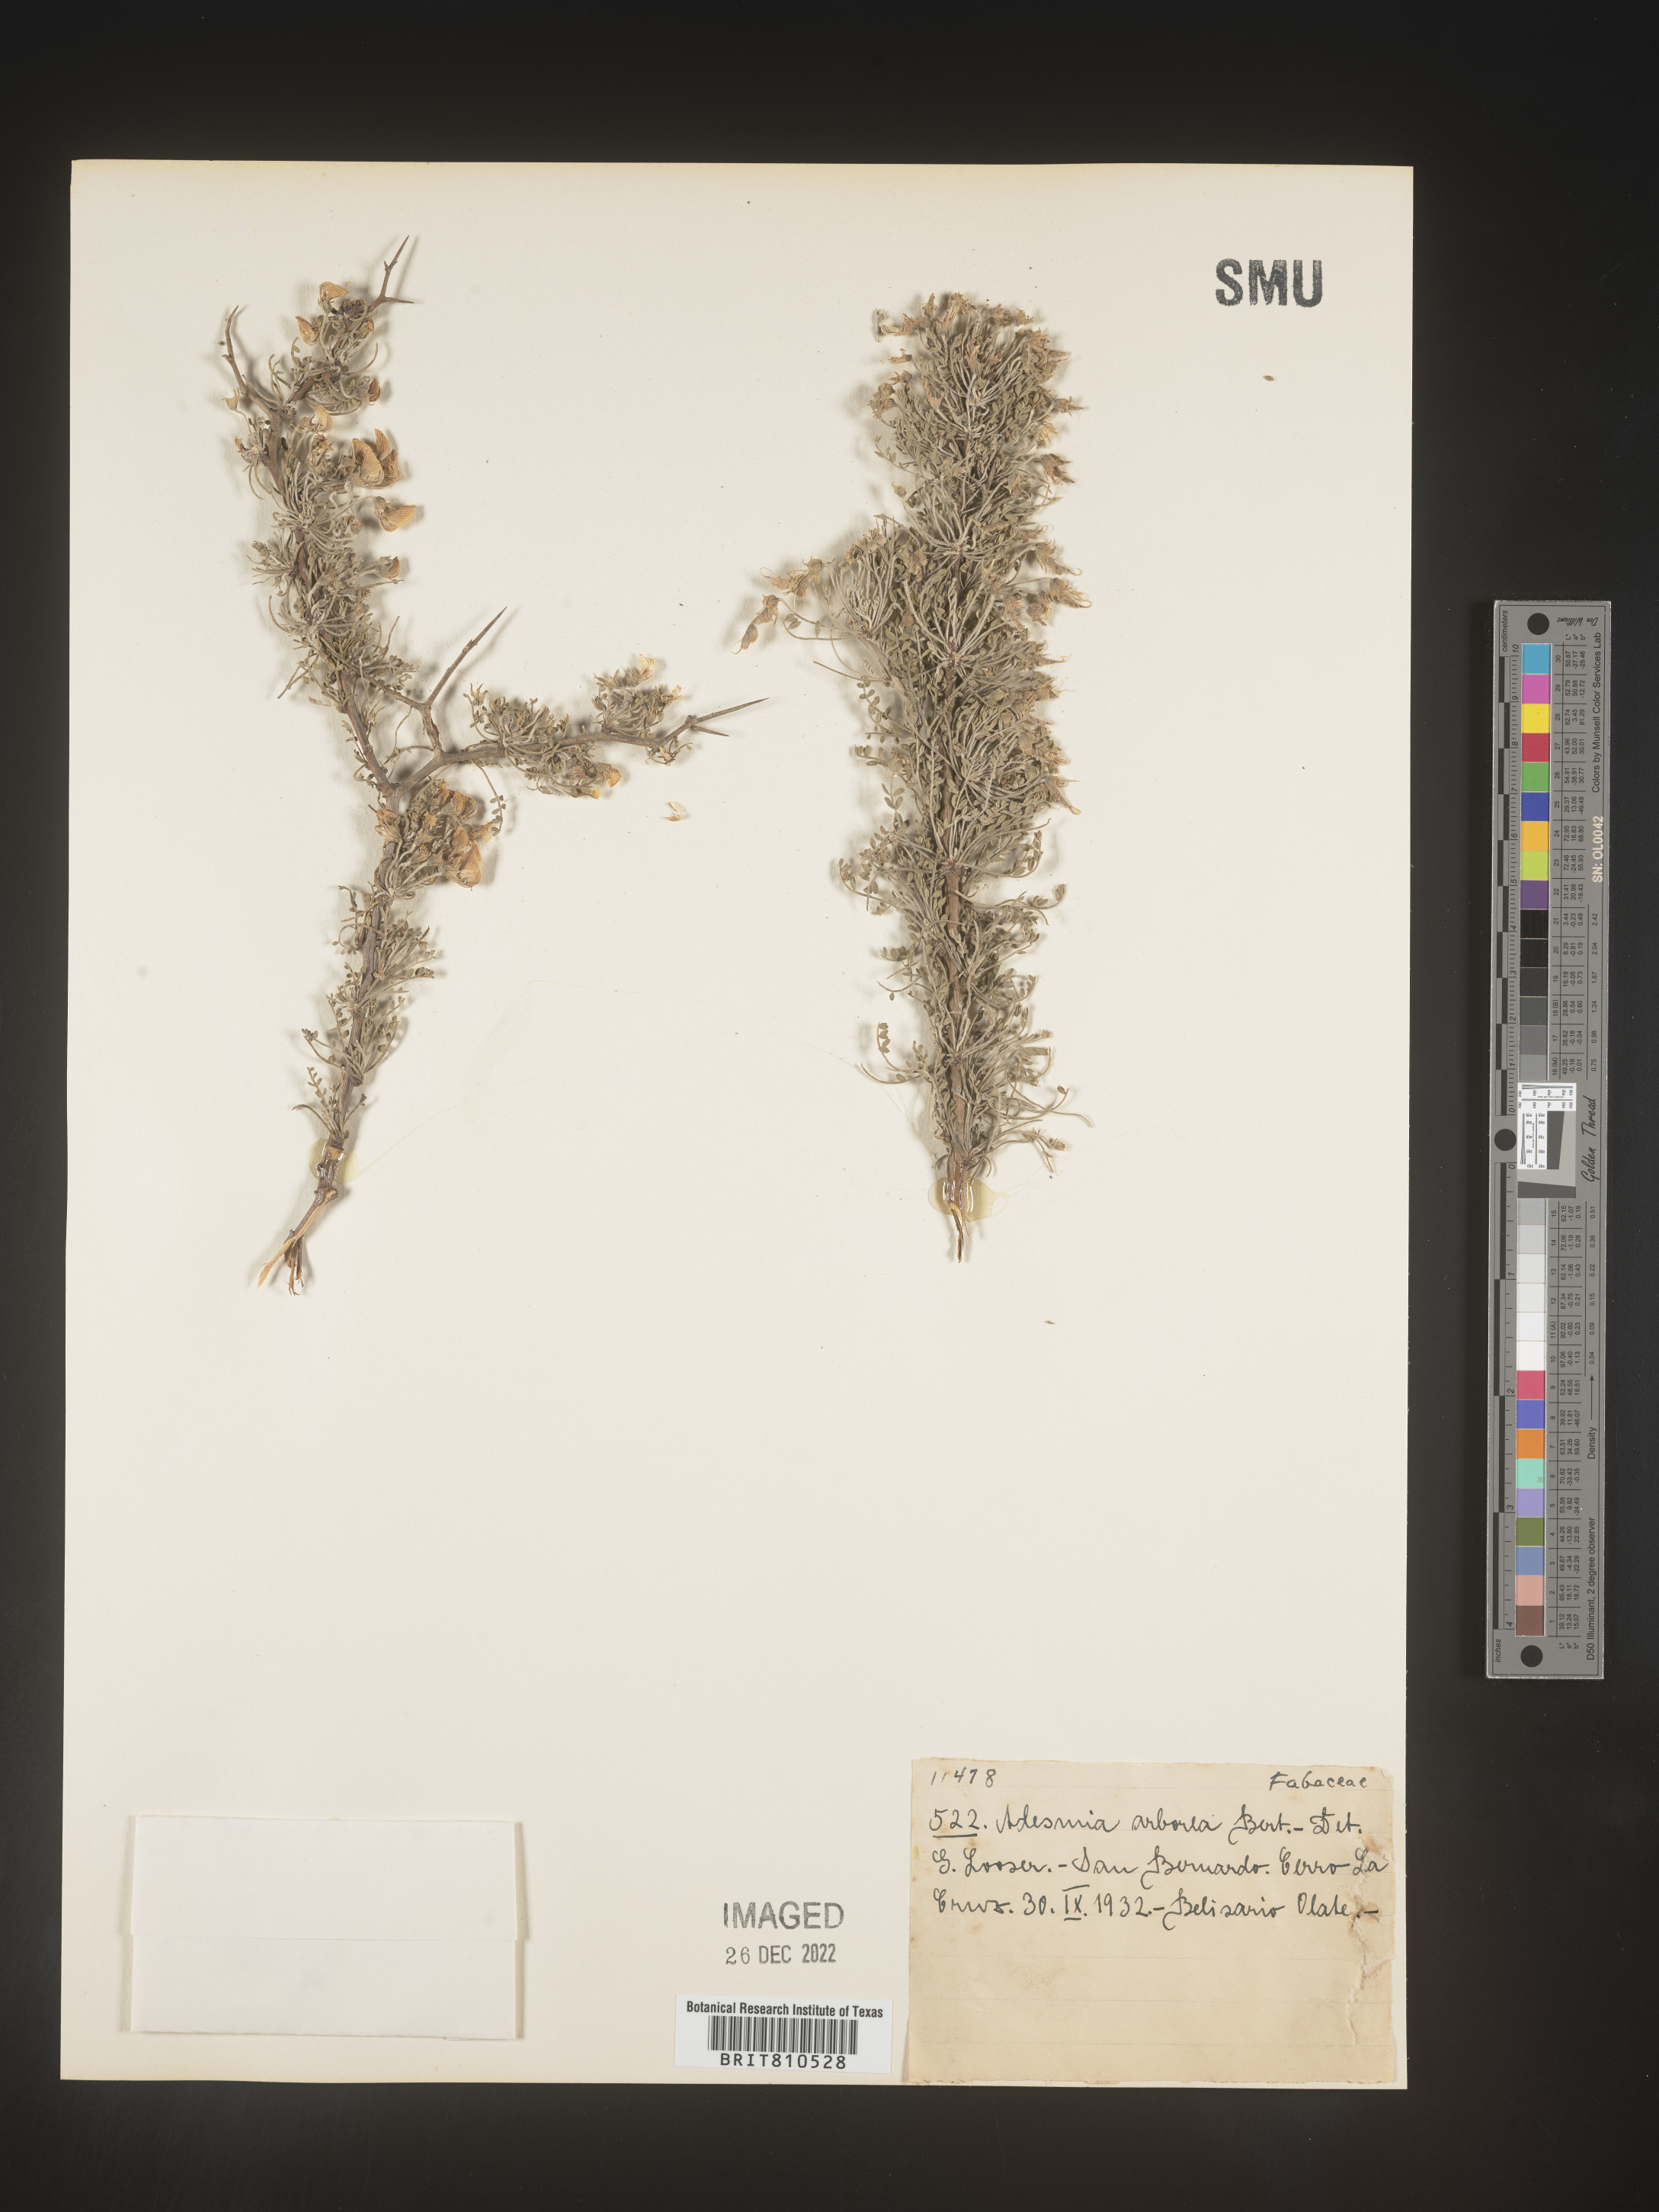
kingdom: Plantae
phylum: Tracheophyta
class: Magnoliopsida
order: Fabales
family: Fabaceae
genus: Adesmia
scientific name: Adesmia
